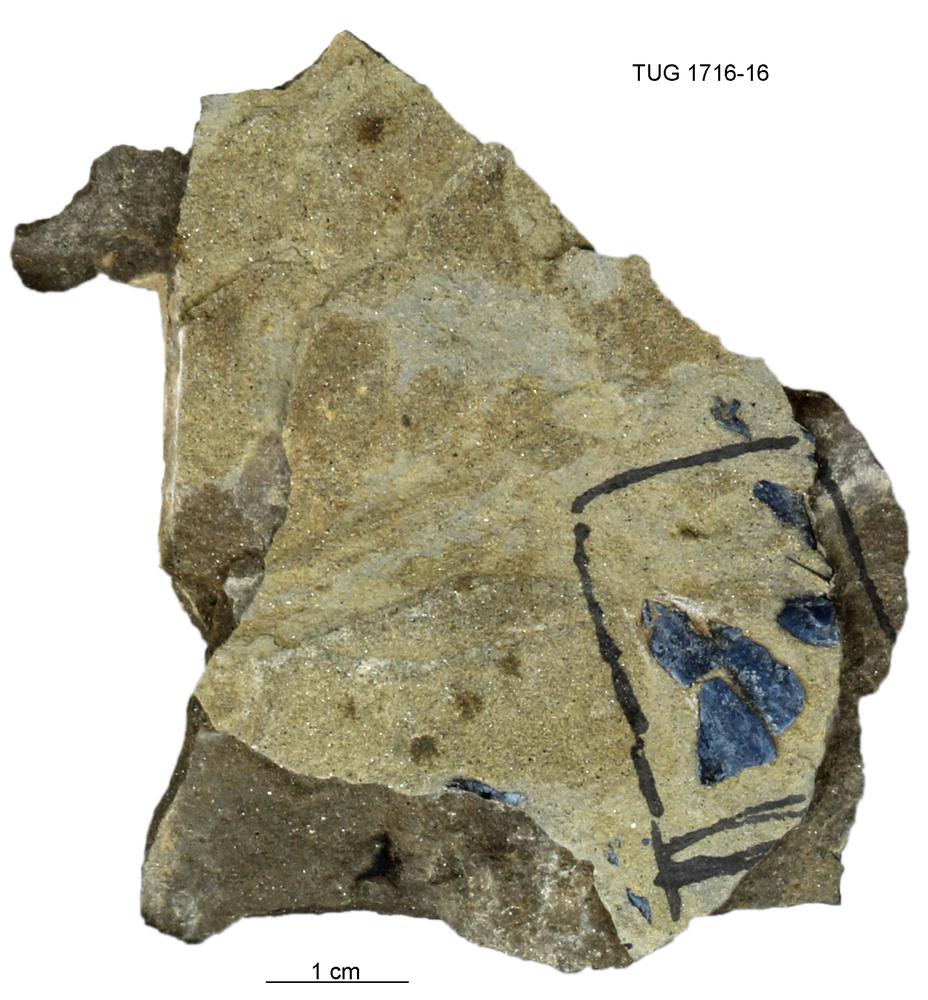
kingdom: Animalia
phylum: Chordata
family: Coccosteidae
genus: Millerosteus
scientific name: Millerosteus minor
